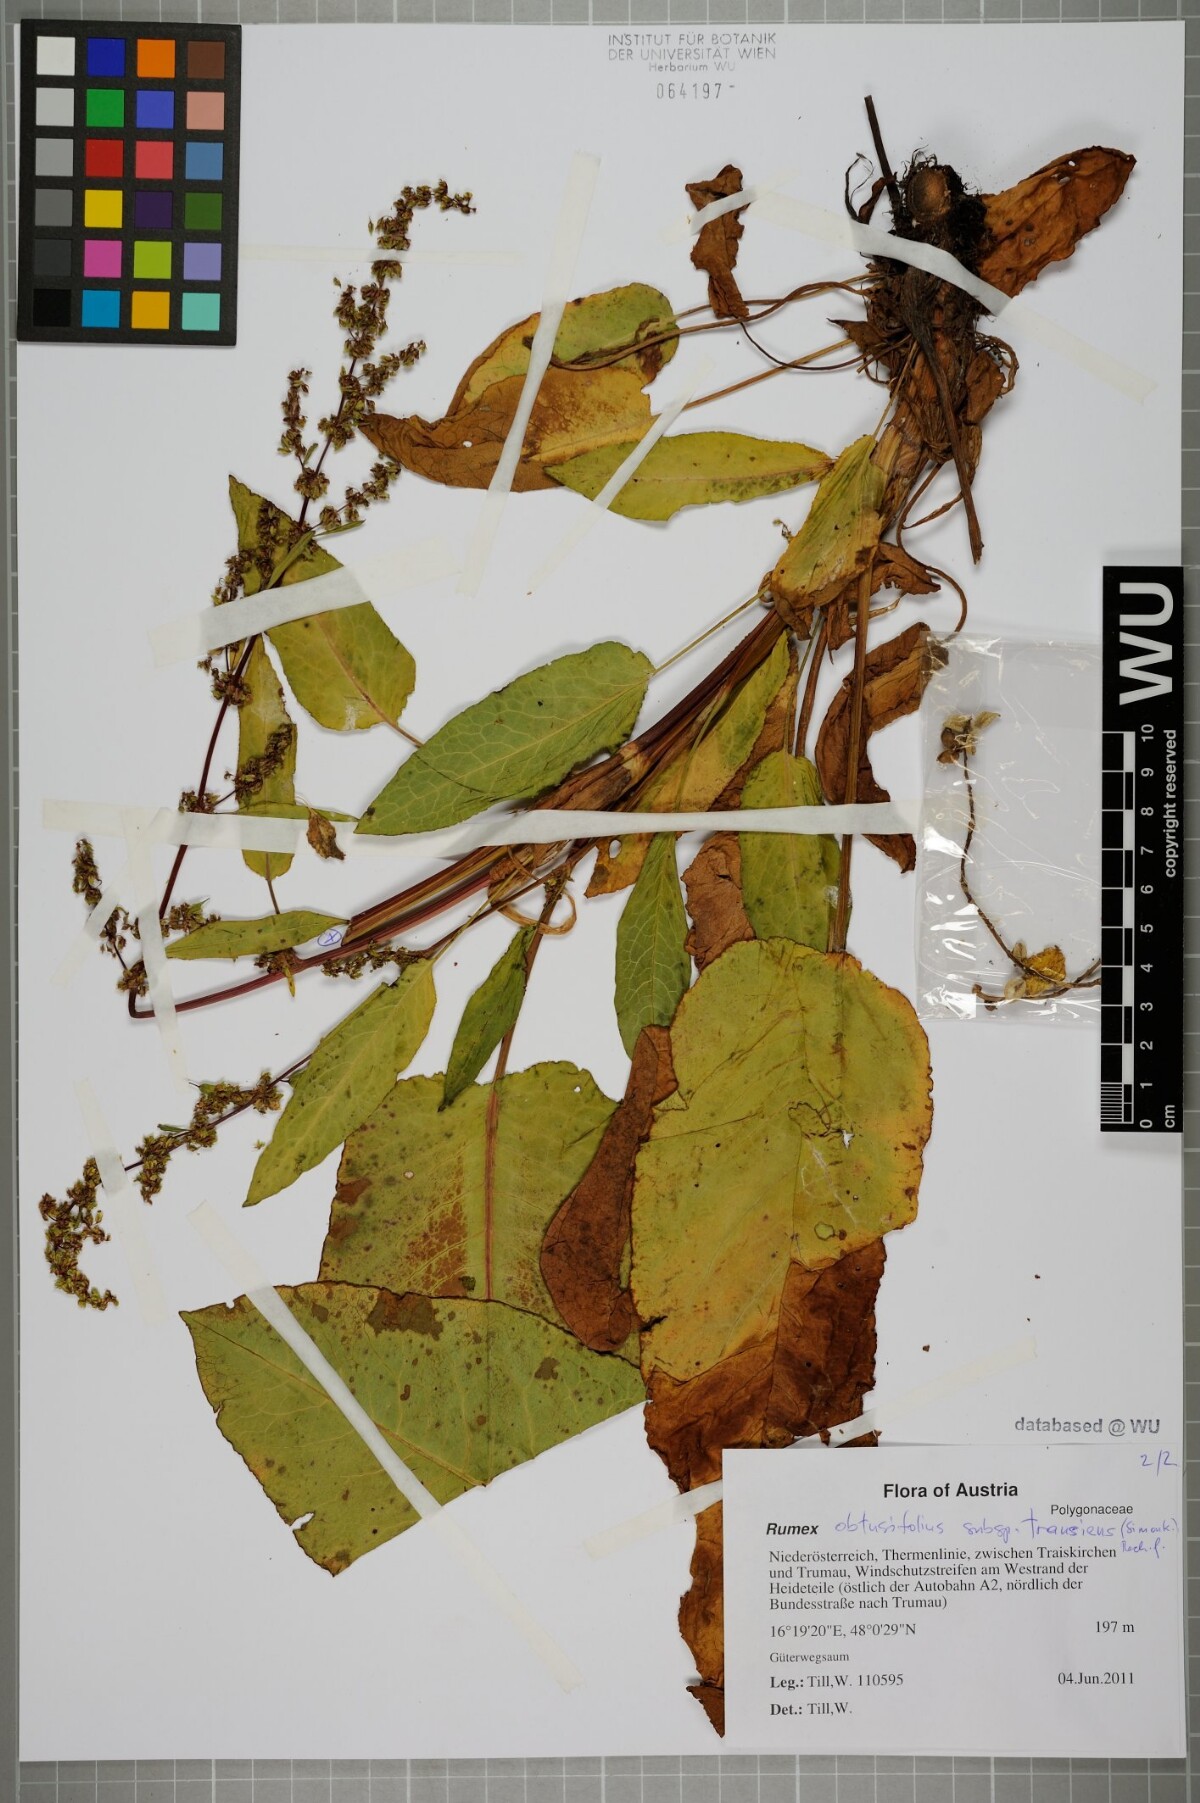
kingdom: Plantae
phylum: Tracheophyta
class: Magnoliopsida
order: Caryophyllales
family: Polygonaceae
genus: Rumex
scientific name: Rumex obtusifolius
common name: Bitter dock
